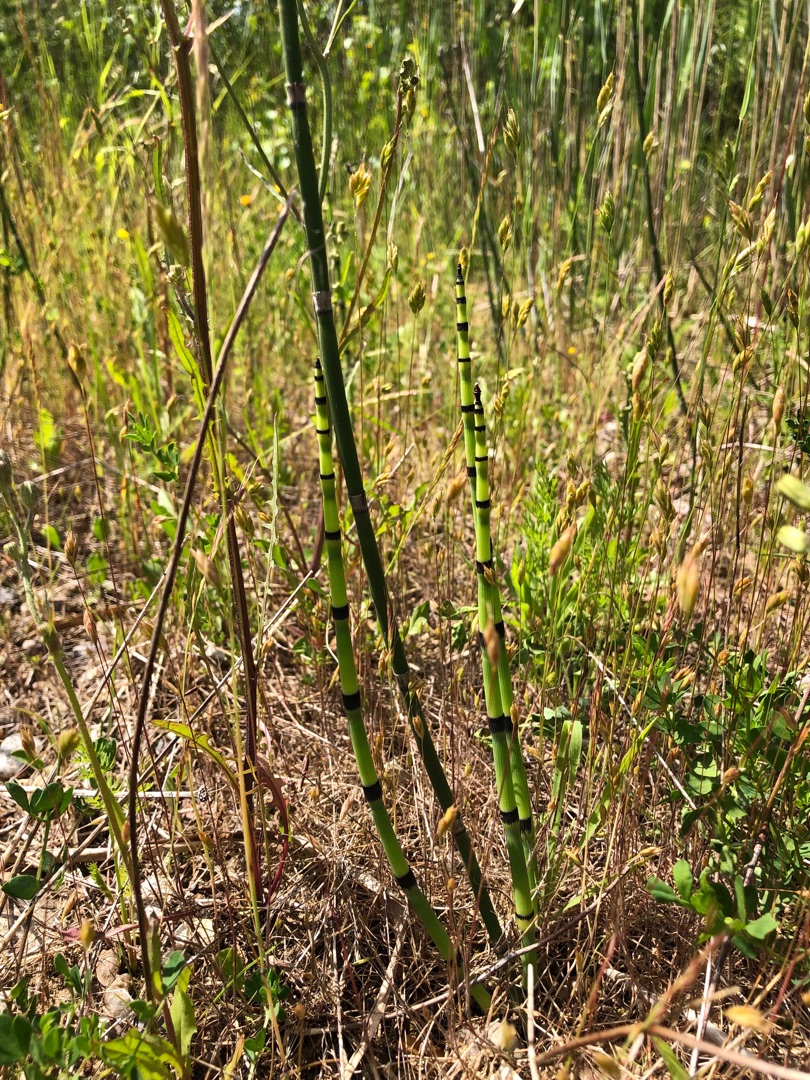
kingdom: Plantae
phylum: Tracheophyta
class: Polypodiopsida
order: Equisetales
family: Equisetaceae
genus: Equisetum
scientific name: Equisetum fluviatile
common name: Dynd-padderok
